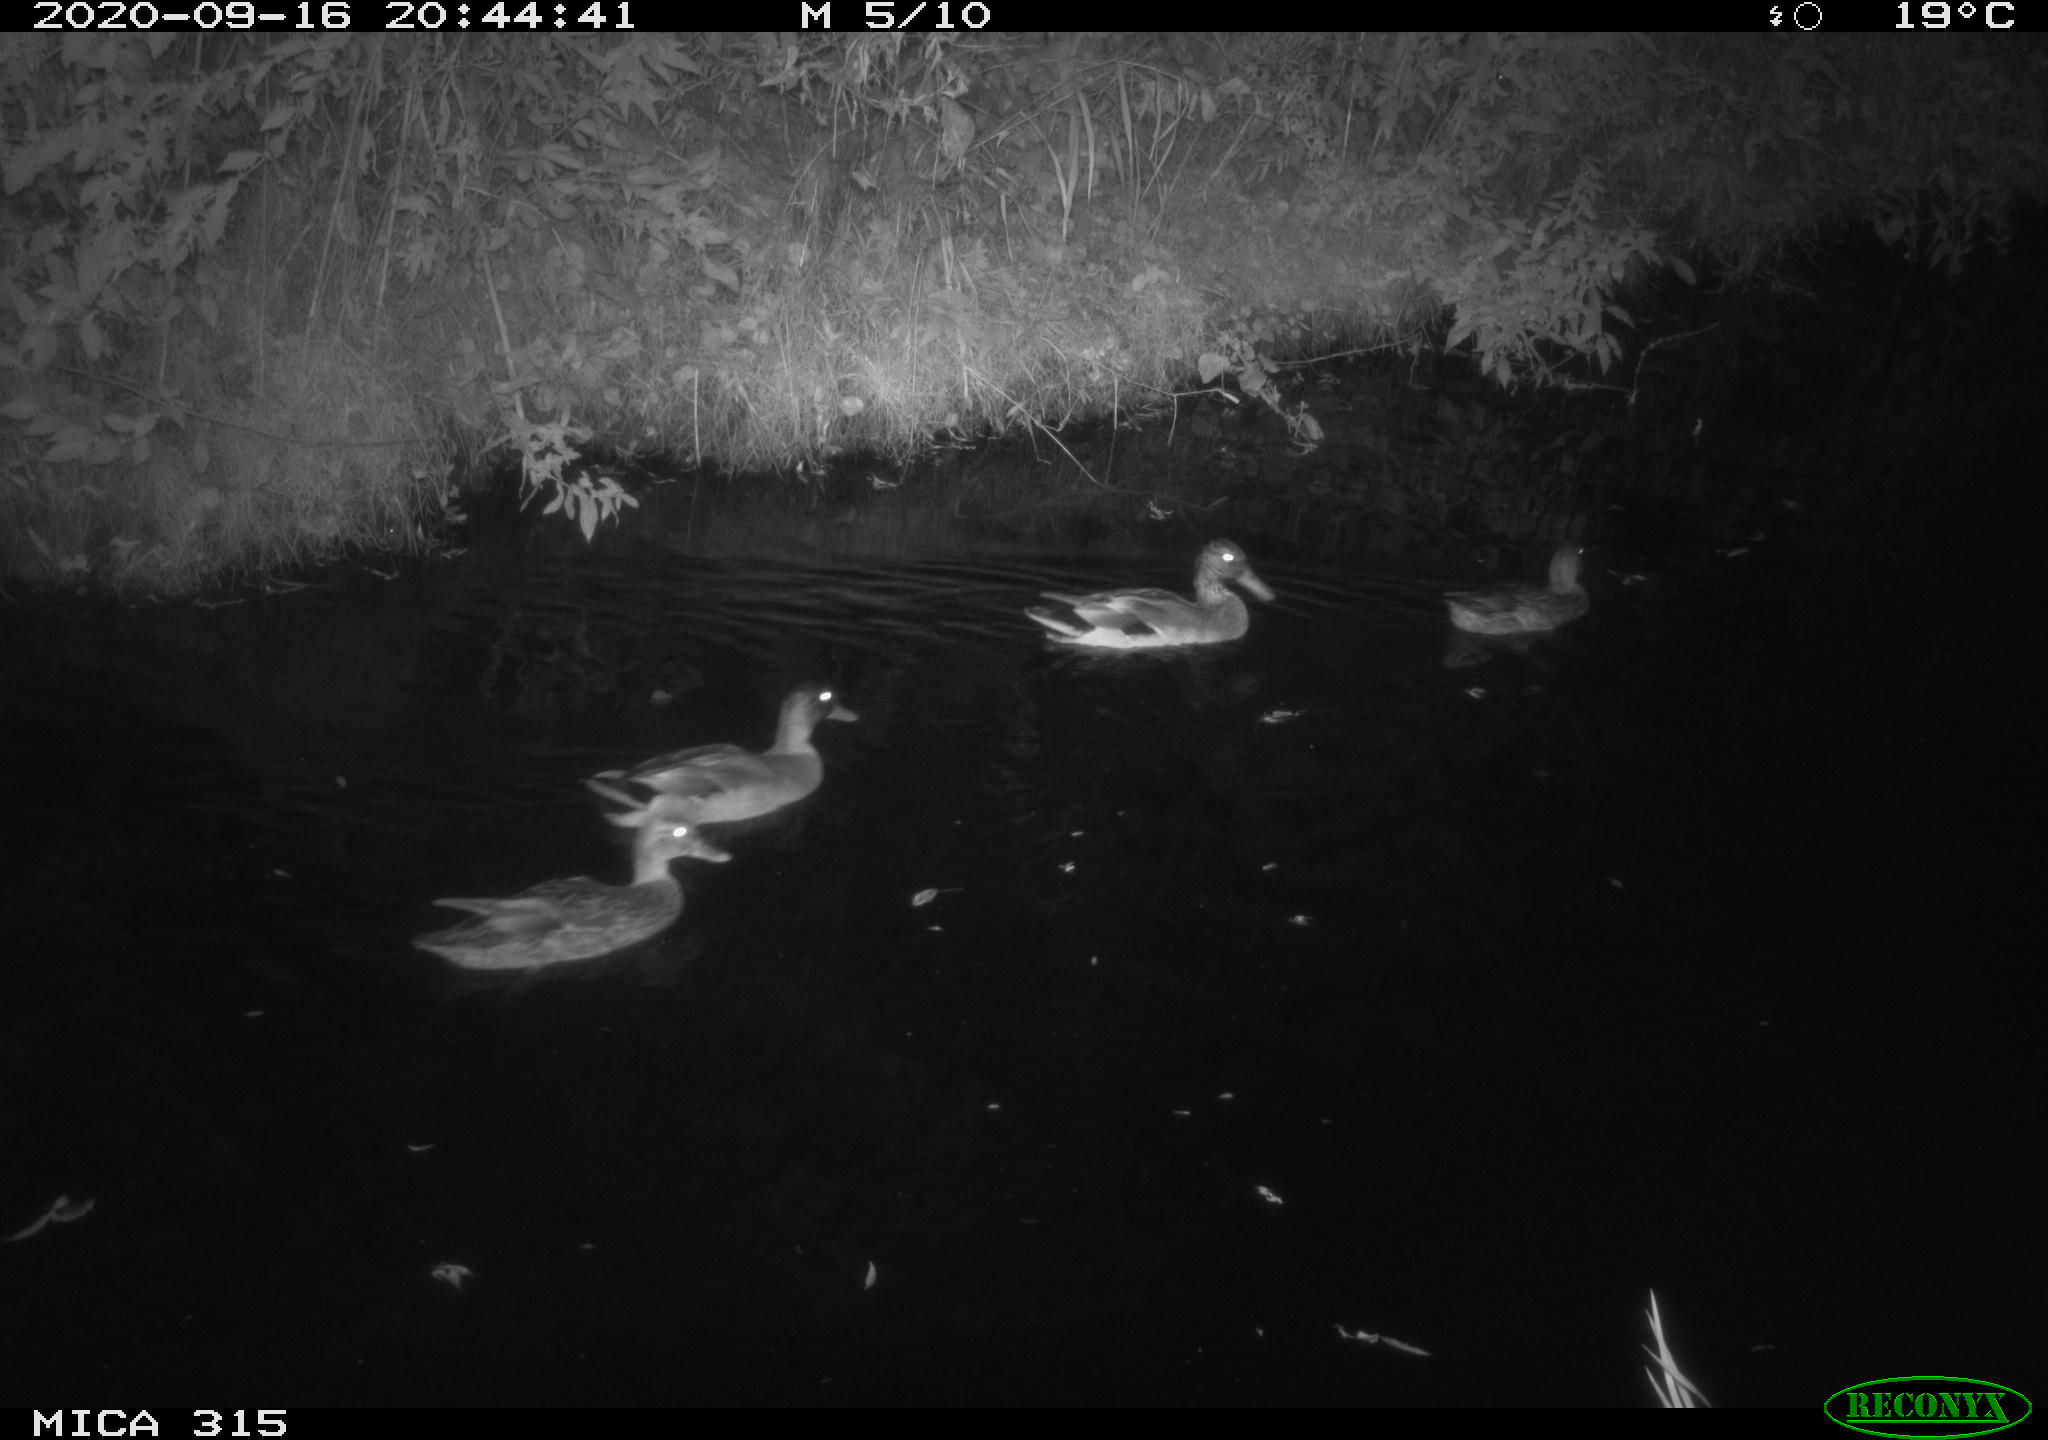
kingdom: Animalia
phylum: Chordata
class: Aves
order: Anseriformes
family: Anatidae
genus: Anas
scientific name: Anas platyrhynchos
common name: Mallard
